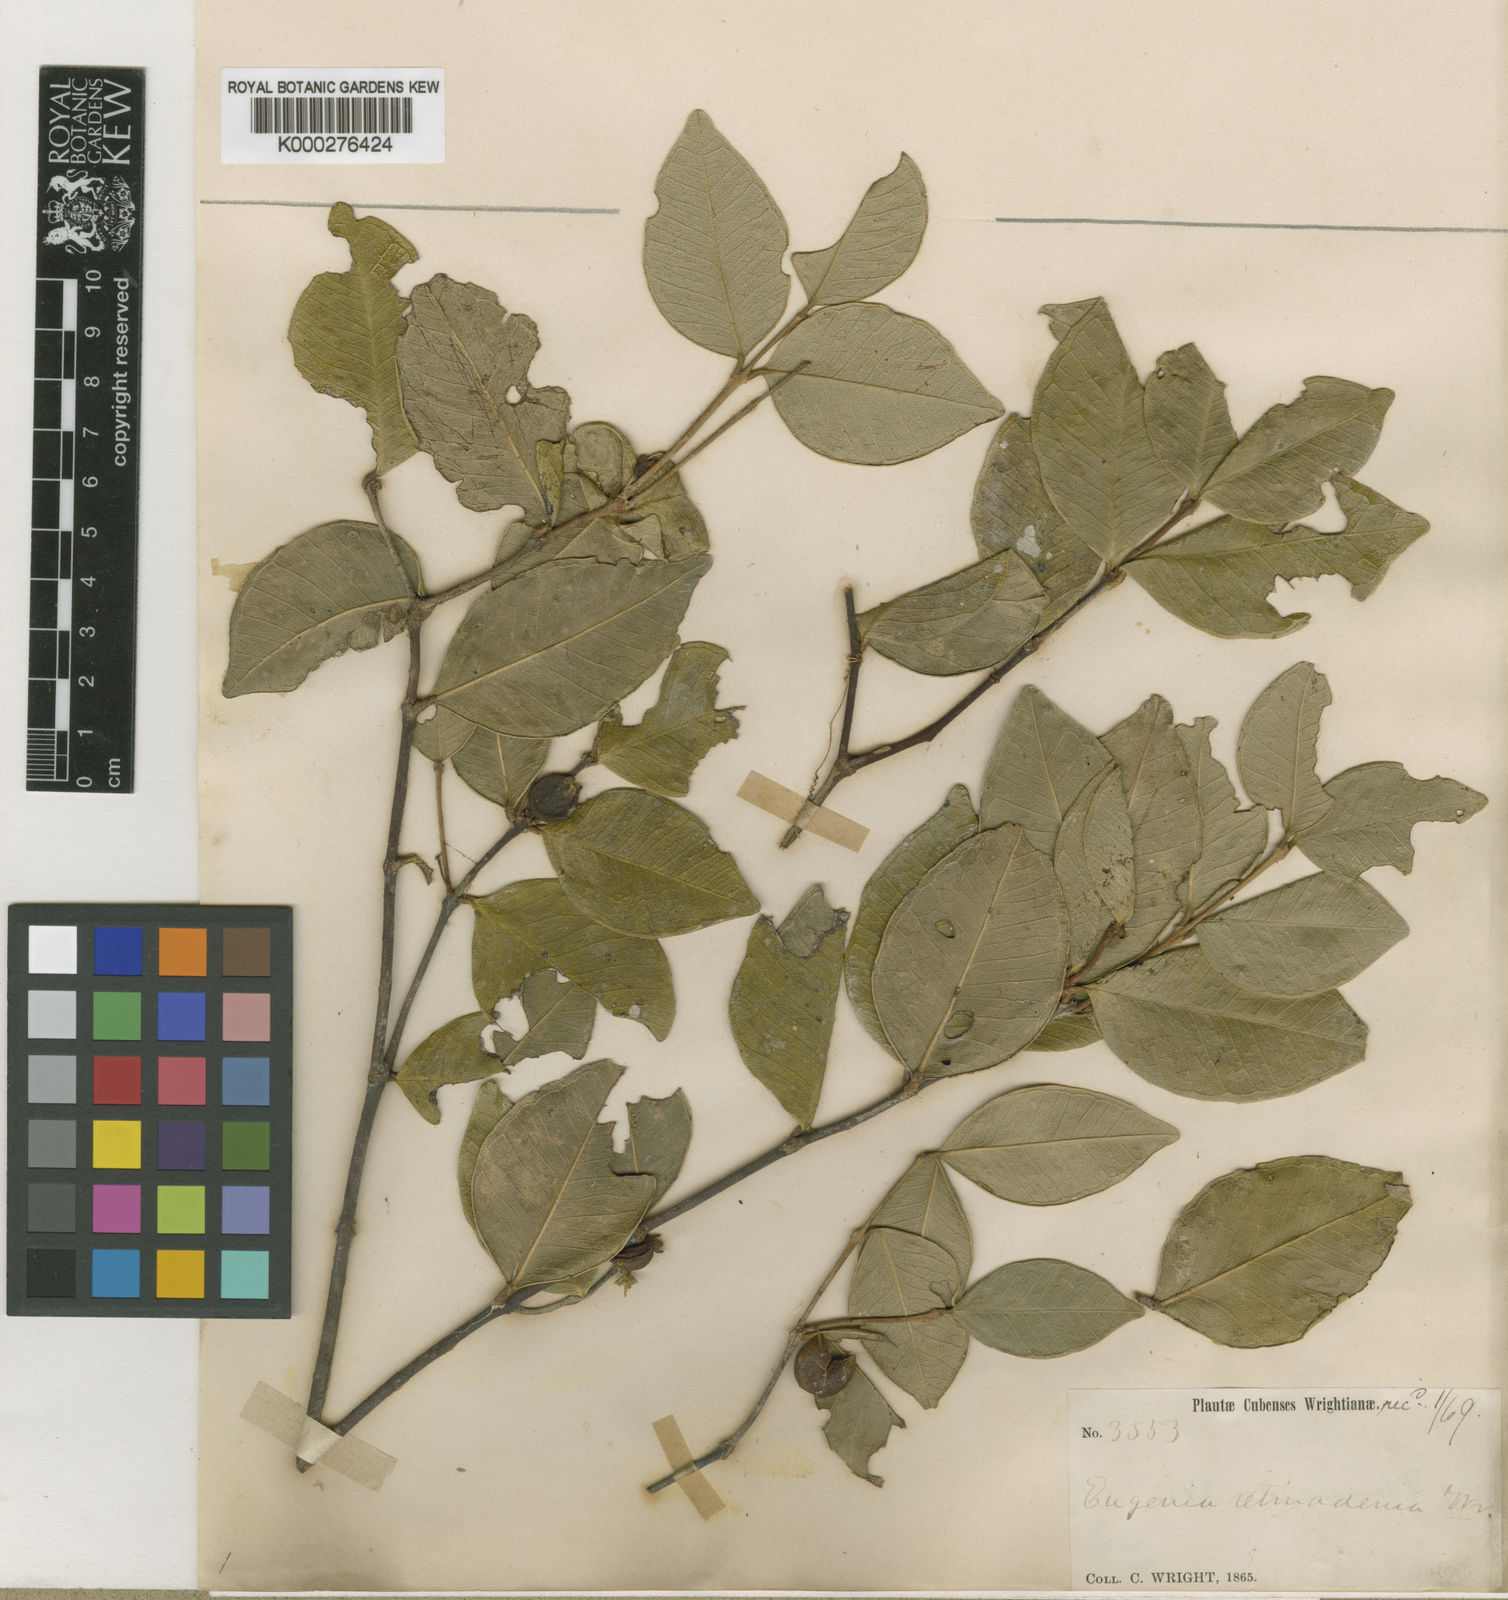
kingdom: Plantae
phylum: Tracheophyta
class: Magnoliopsida
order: Myrtales
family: Myrtaceae
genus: Eugenia
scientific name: Eugenia retinadenia
